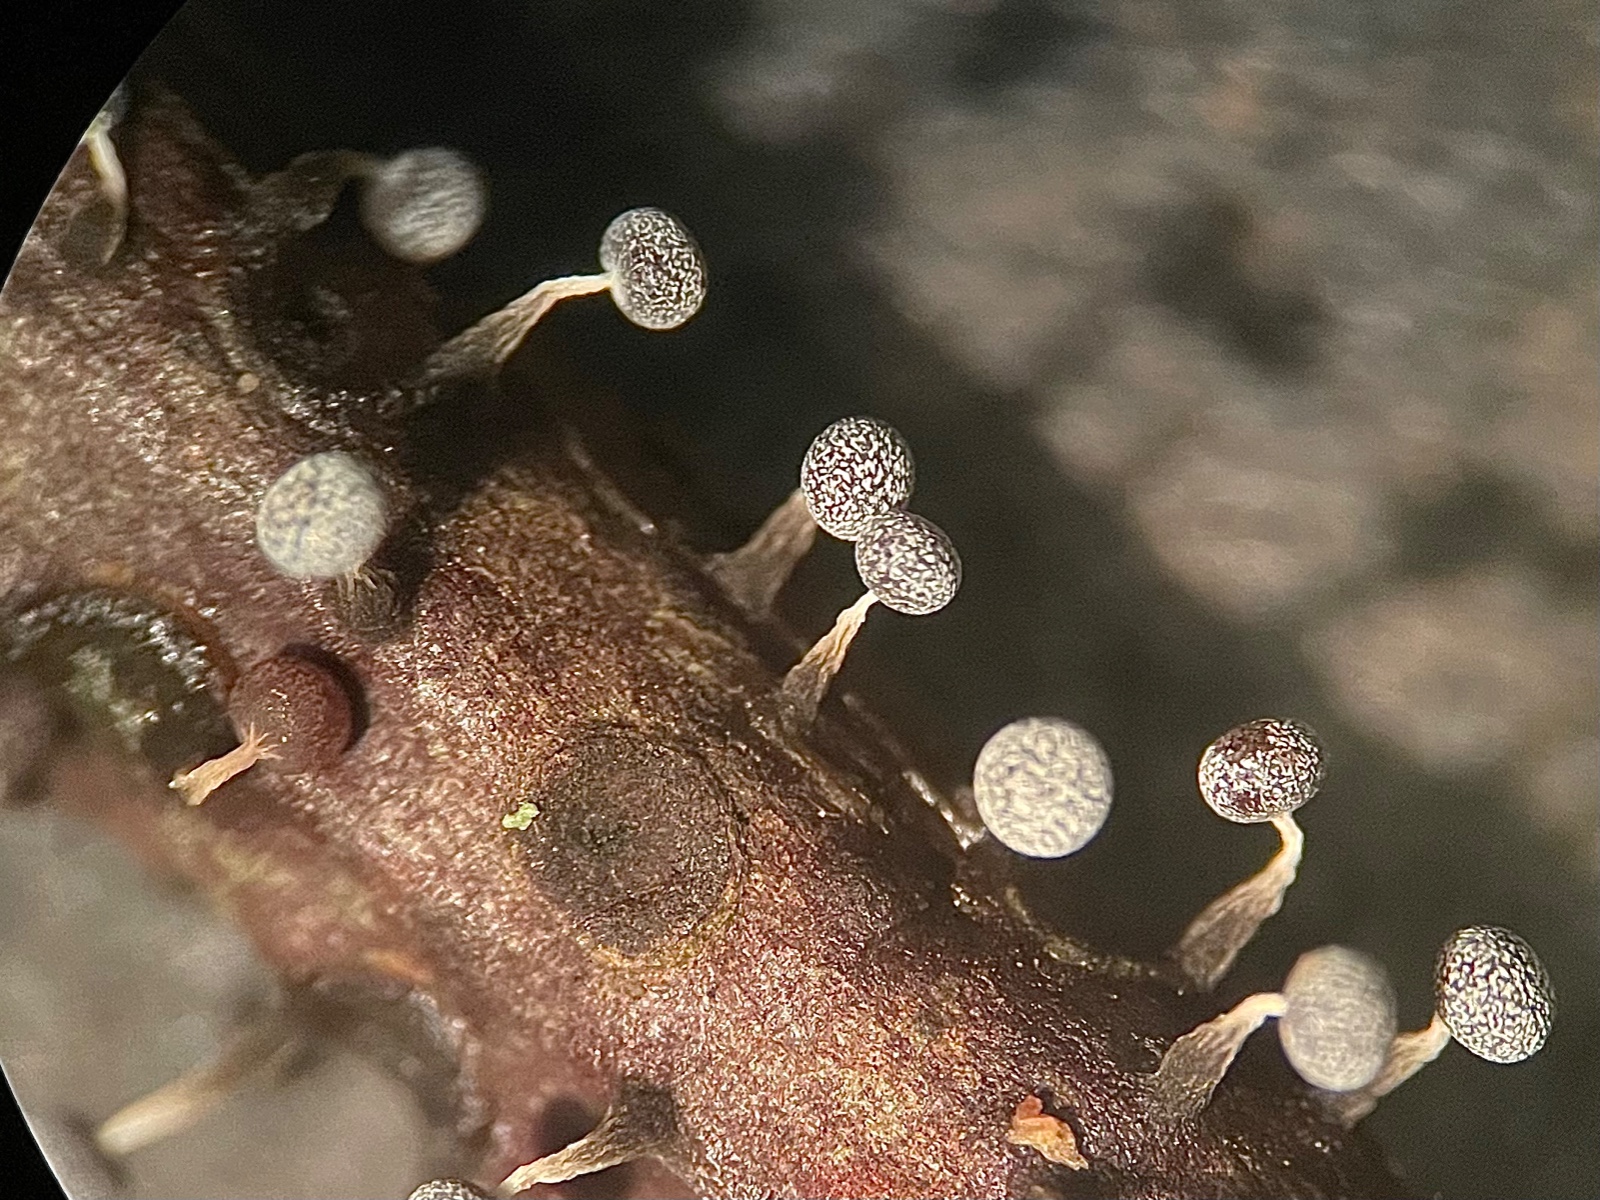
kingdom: Protozoa
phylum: Mycetozoa
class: Myxomycetes
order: Physarales
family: Physaraceae
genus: Physarum
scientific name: Physarum album
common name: nikkende støvknop
